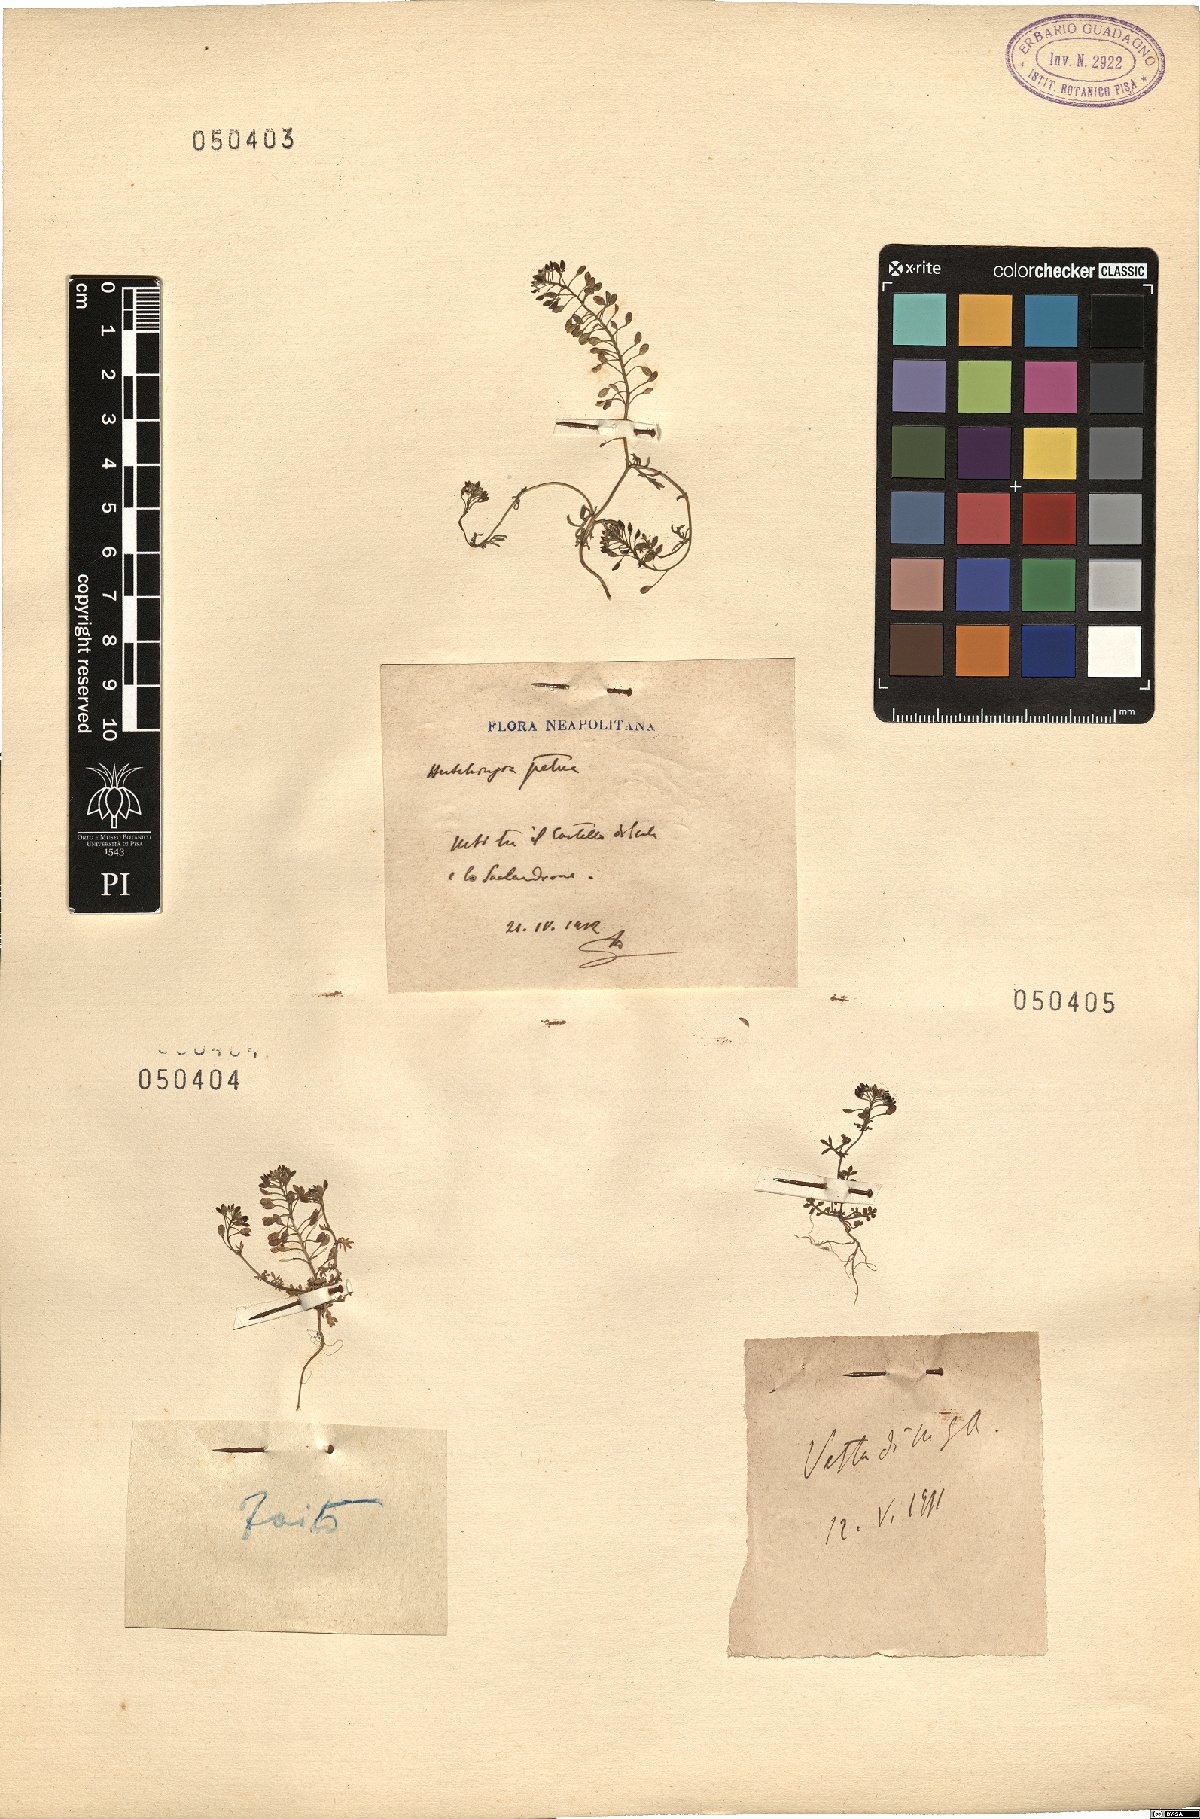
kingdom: Plantae
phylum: Rhodophyta
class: Florideophyceae
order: Ceramiales
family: Rhodomelaceae
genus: Hutchinsia
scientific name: Hutchinsia
